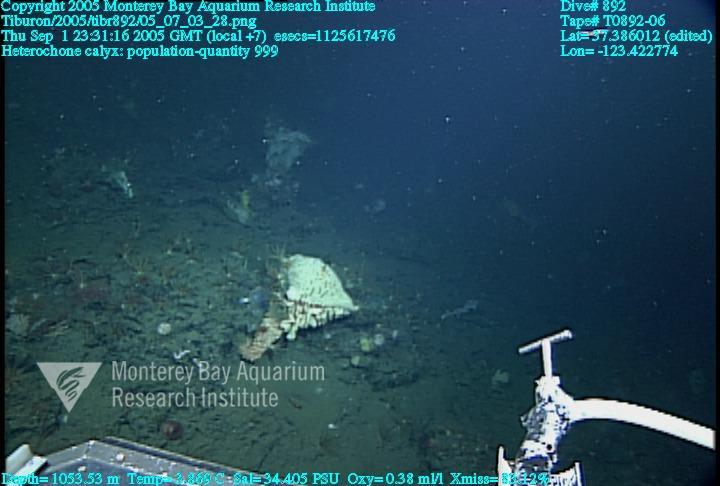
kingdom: Animalia
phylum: Porifera
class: Hexactinellida
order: Sceptrulophora
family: Aphrocallistidae
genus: Heterochone
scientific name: Heterochone calyx
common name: Fingered goblet glass sponge
